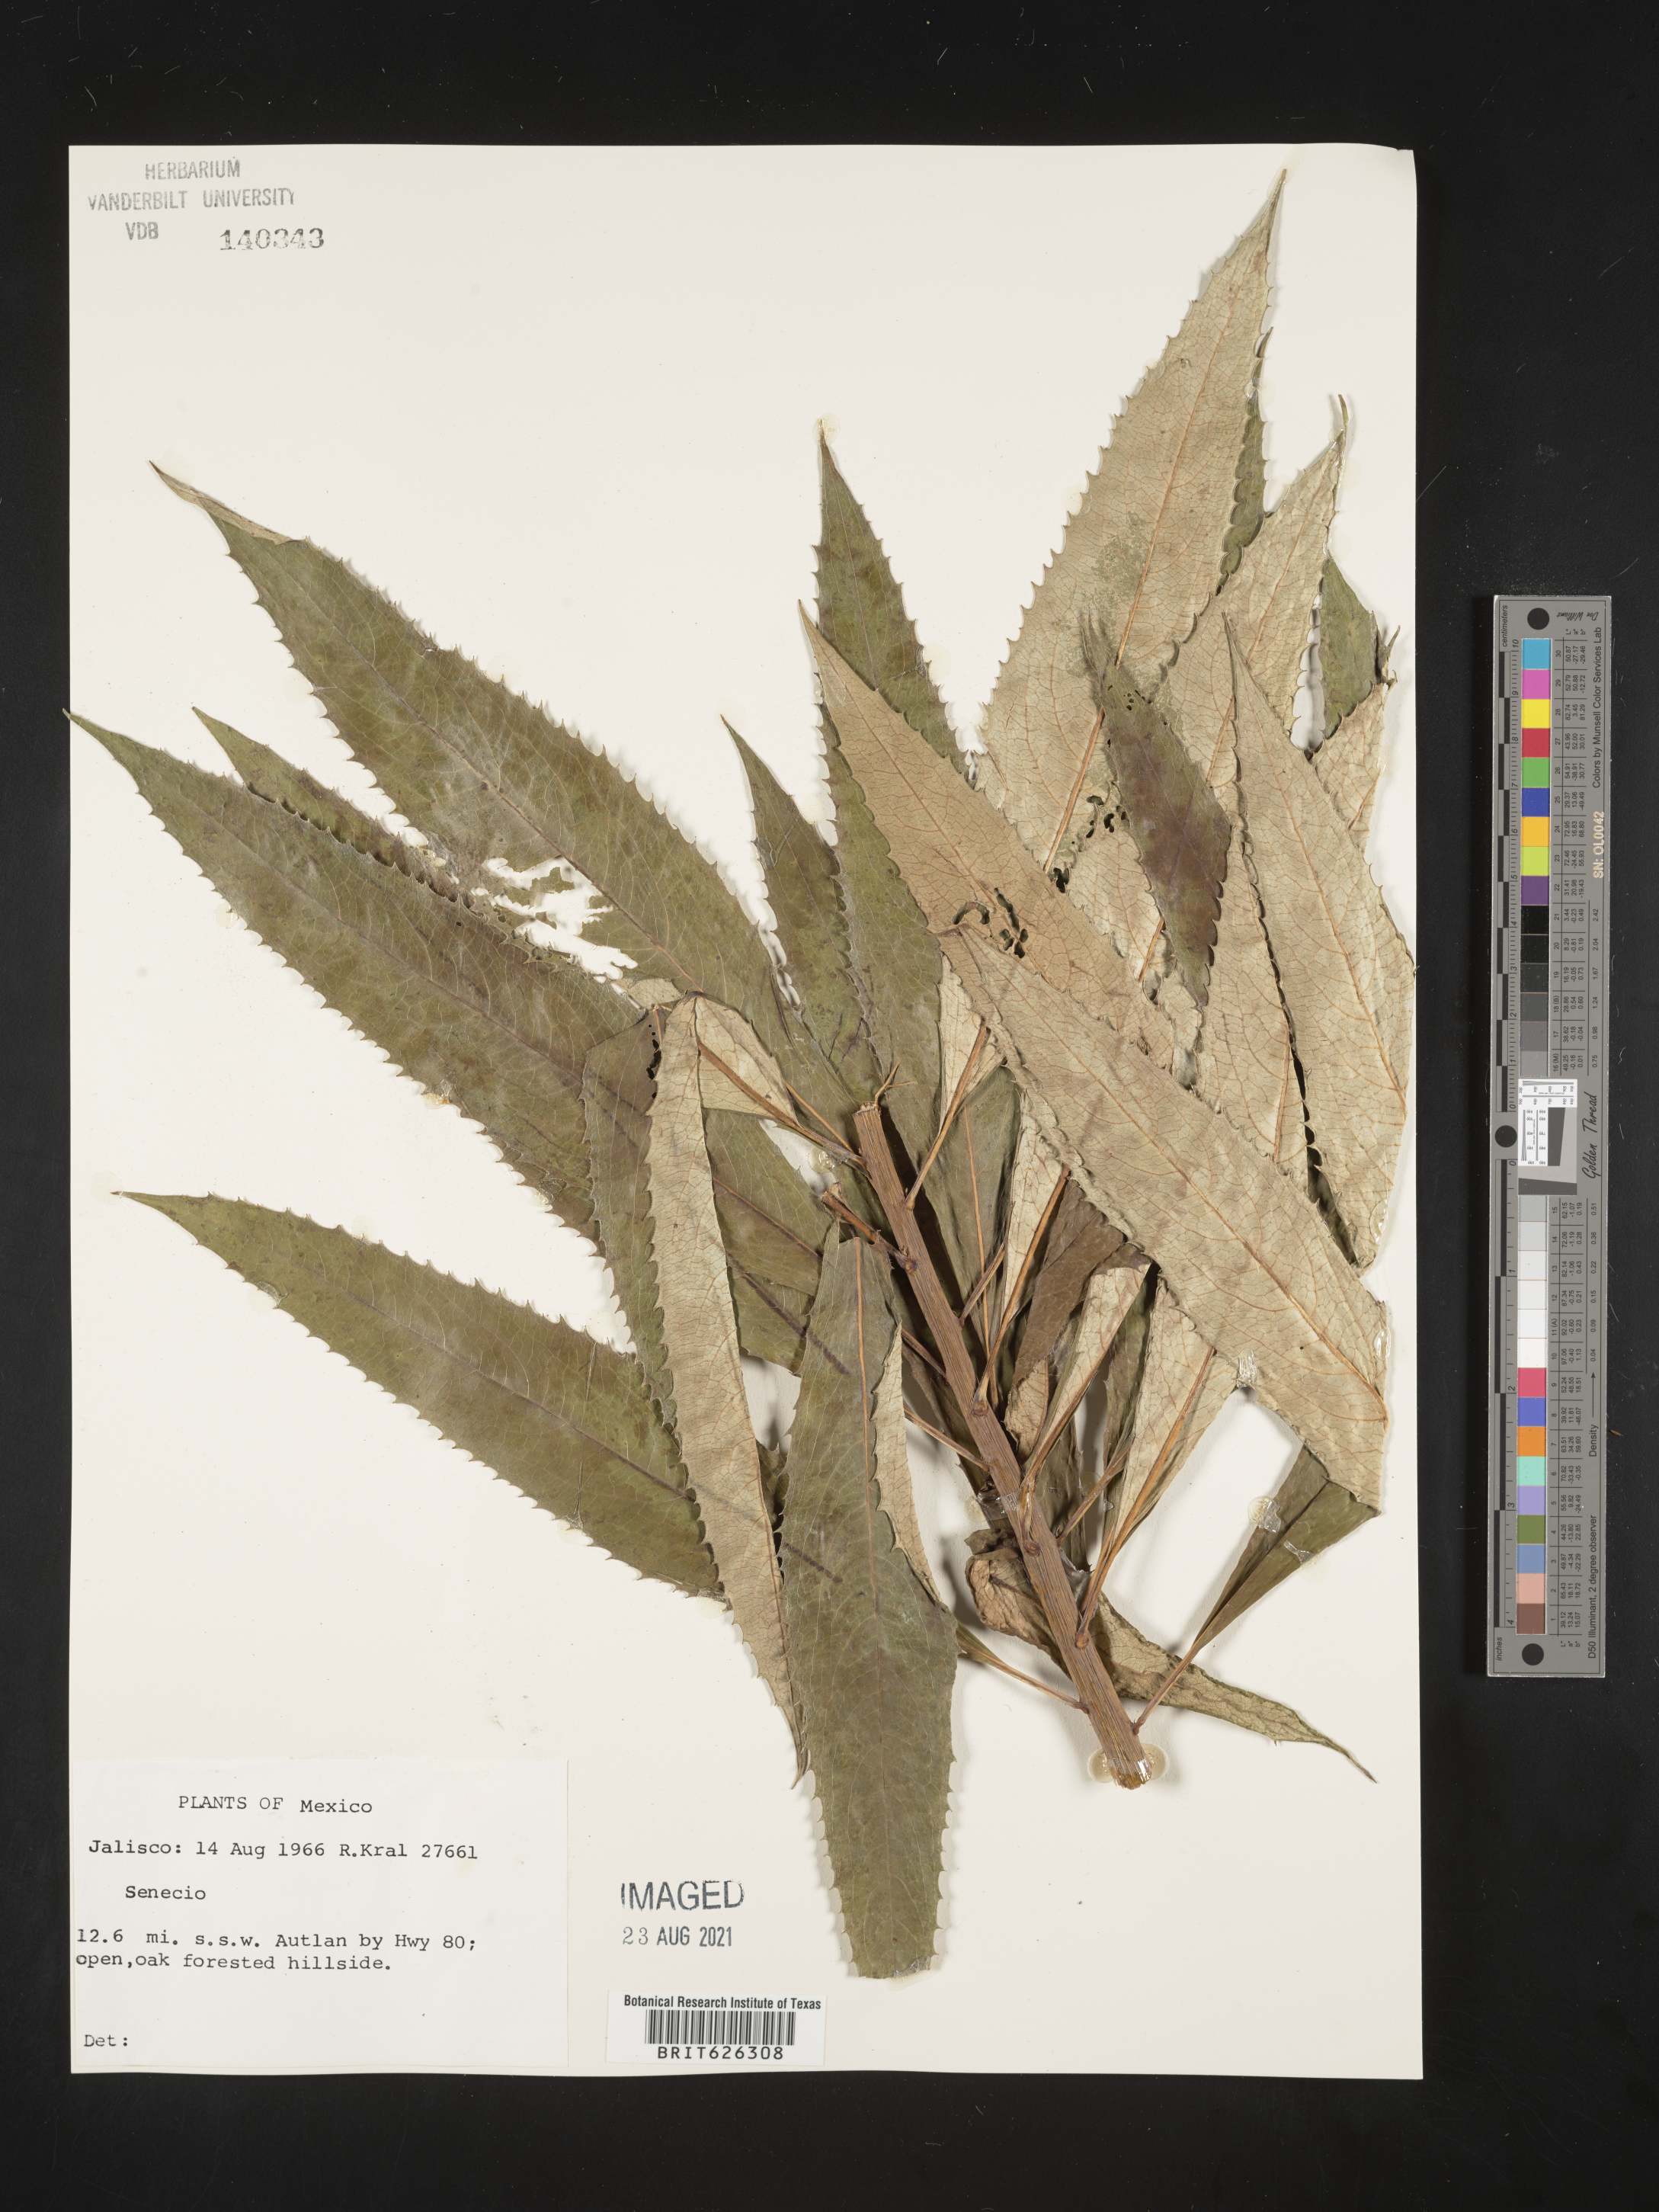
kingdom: Plantae
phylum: Tracheophyta
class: Magnoliopsida
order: Asterales
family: Asteraceae
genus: Senecio
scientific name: Senecio
